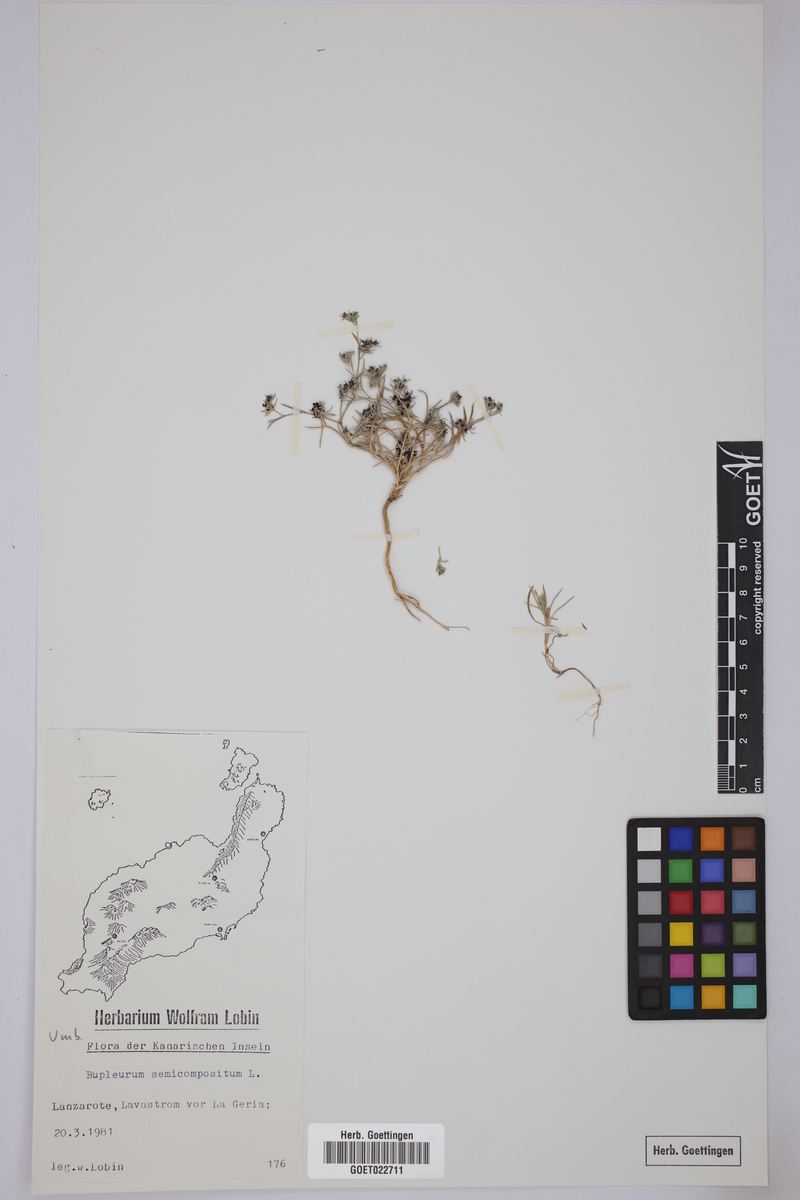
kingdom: Plantae
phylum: Tracheophyta
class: Magnoliopsida
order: Apiales
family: Apiaceae
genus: Bupleurum
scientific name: Bupleurum semicompositum
